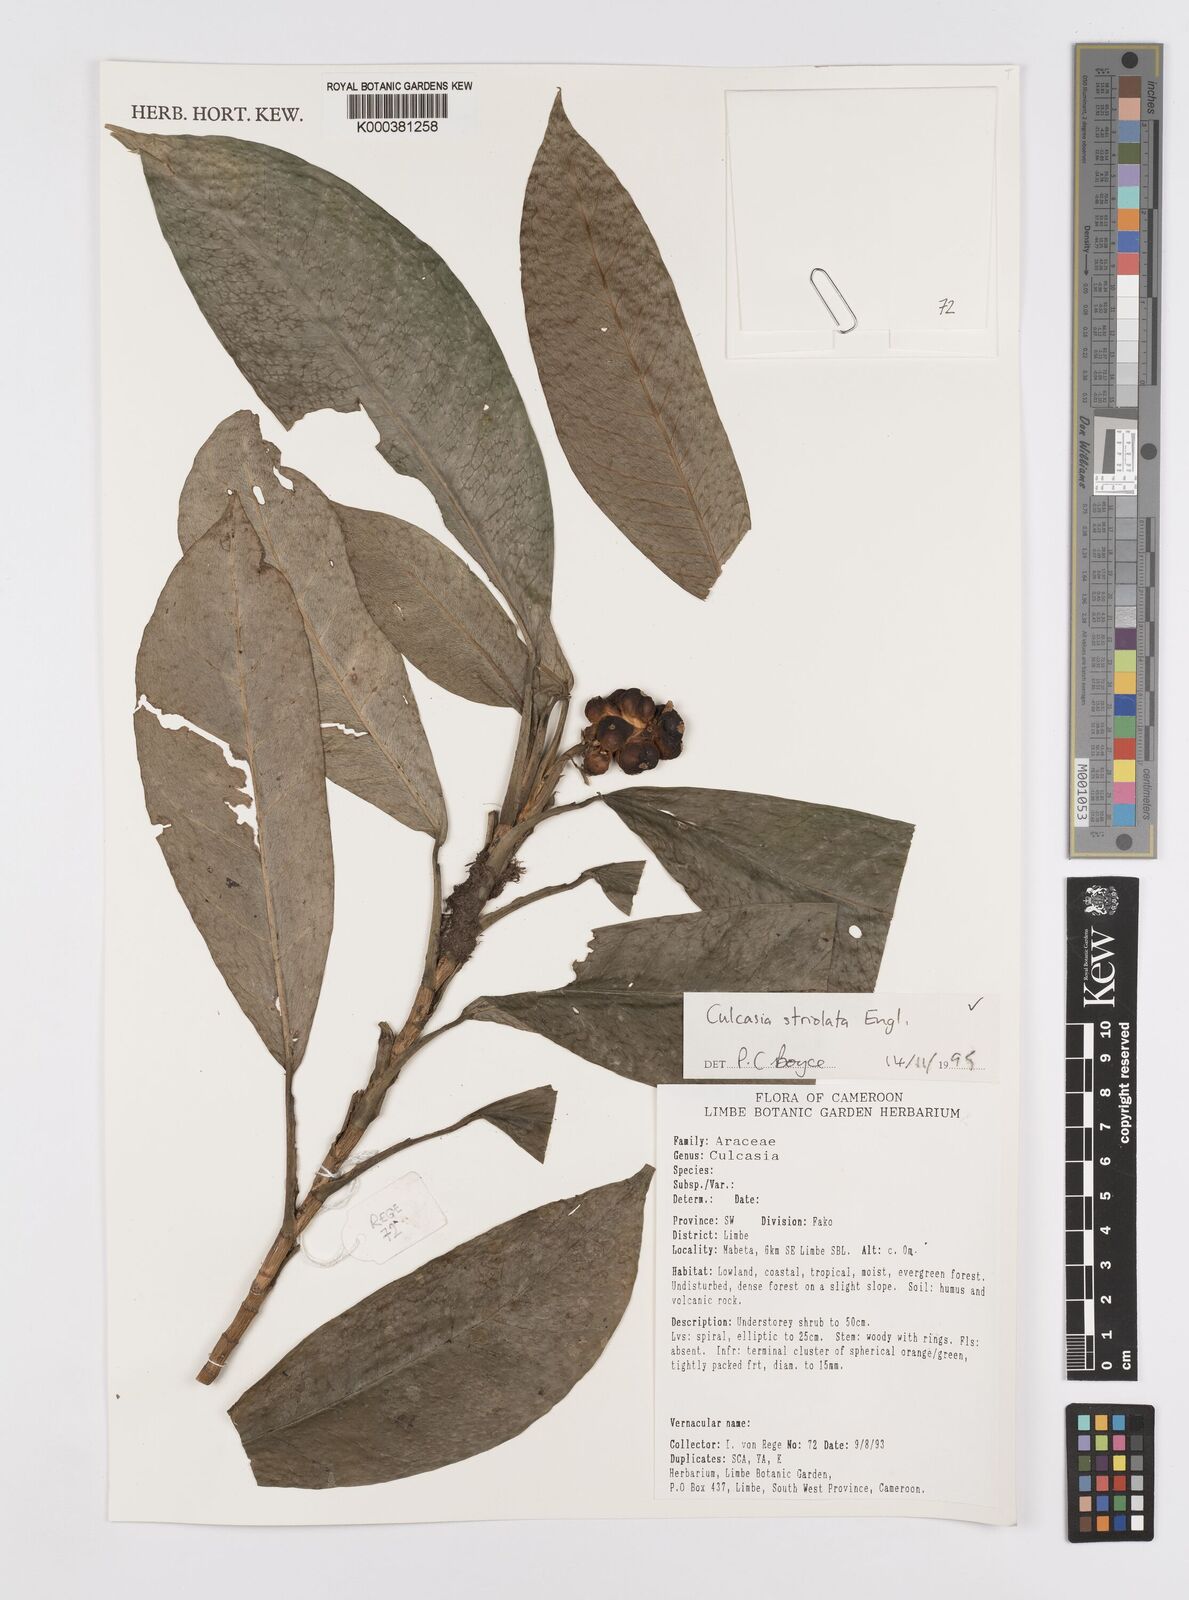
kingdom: Plantae
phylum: Tracheophyta
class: Liliopsida
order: Alismatales
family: Araceae
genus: Culcasia
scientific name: Culcasia striolata
